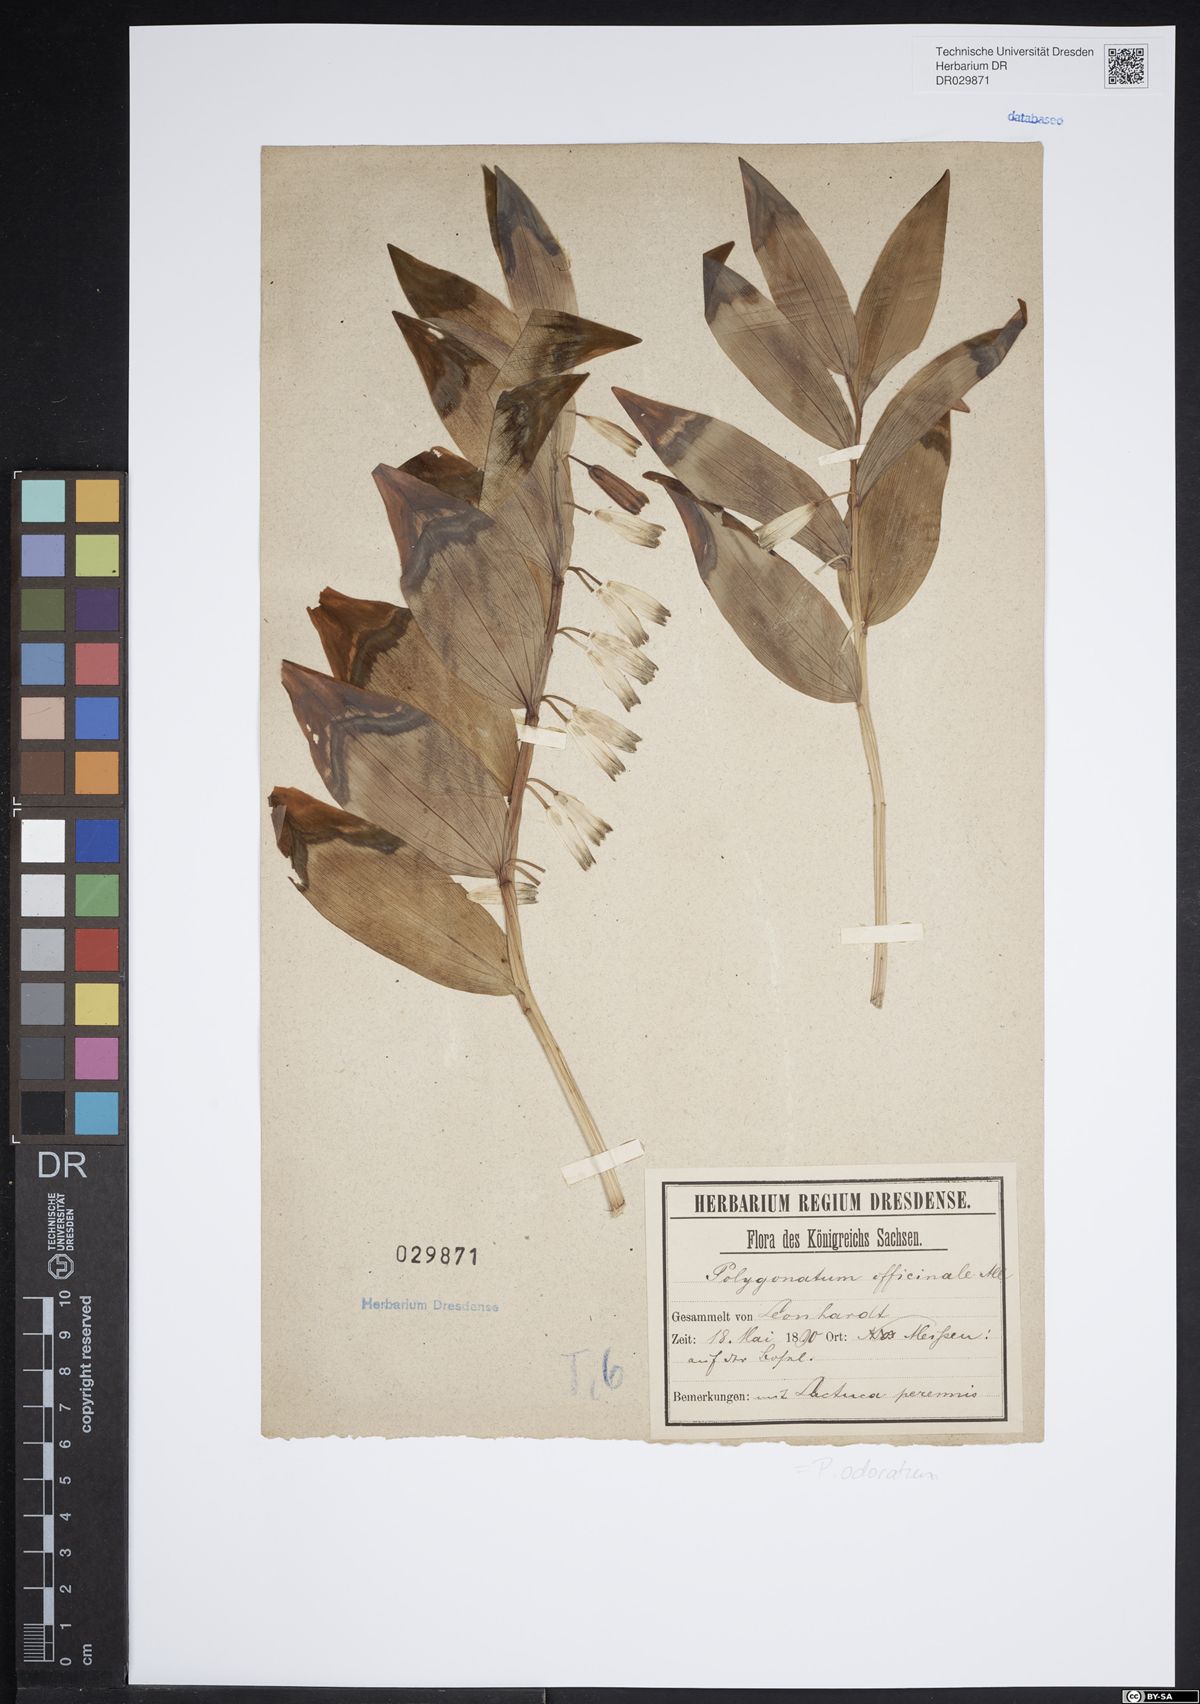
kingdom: Plantae
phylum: Tracheophyta
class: Liliopsida
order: Asparagales
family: Asparagaceae
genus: Polygonatum
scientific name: Polygonatum odoratum
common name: Angular solomon's-seal
